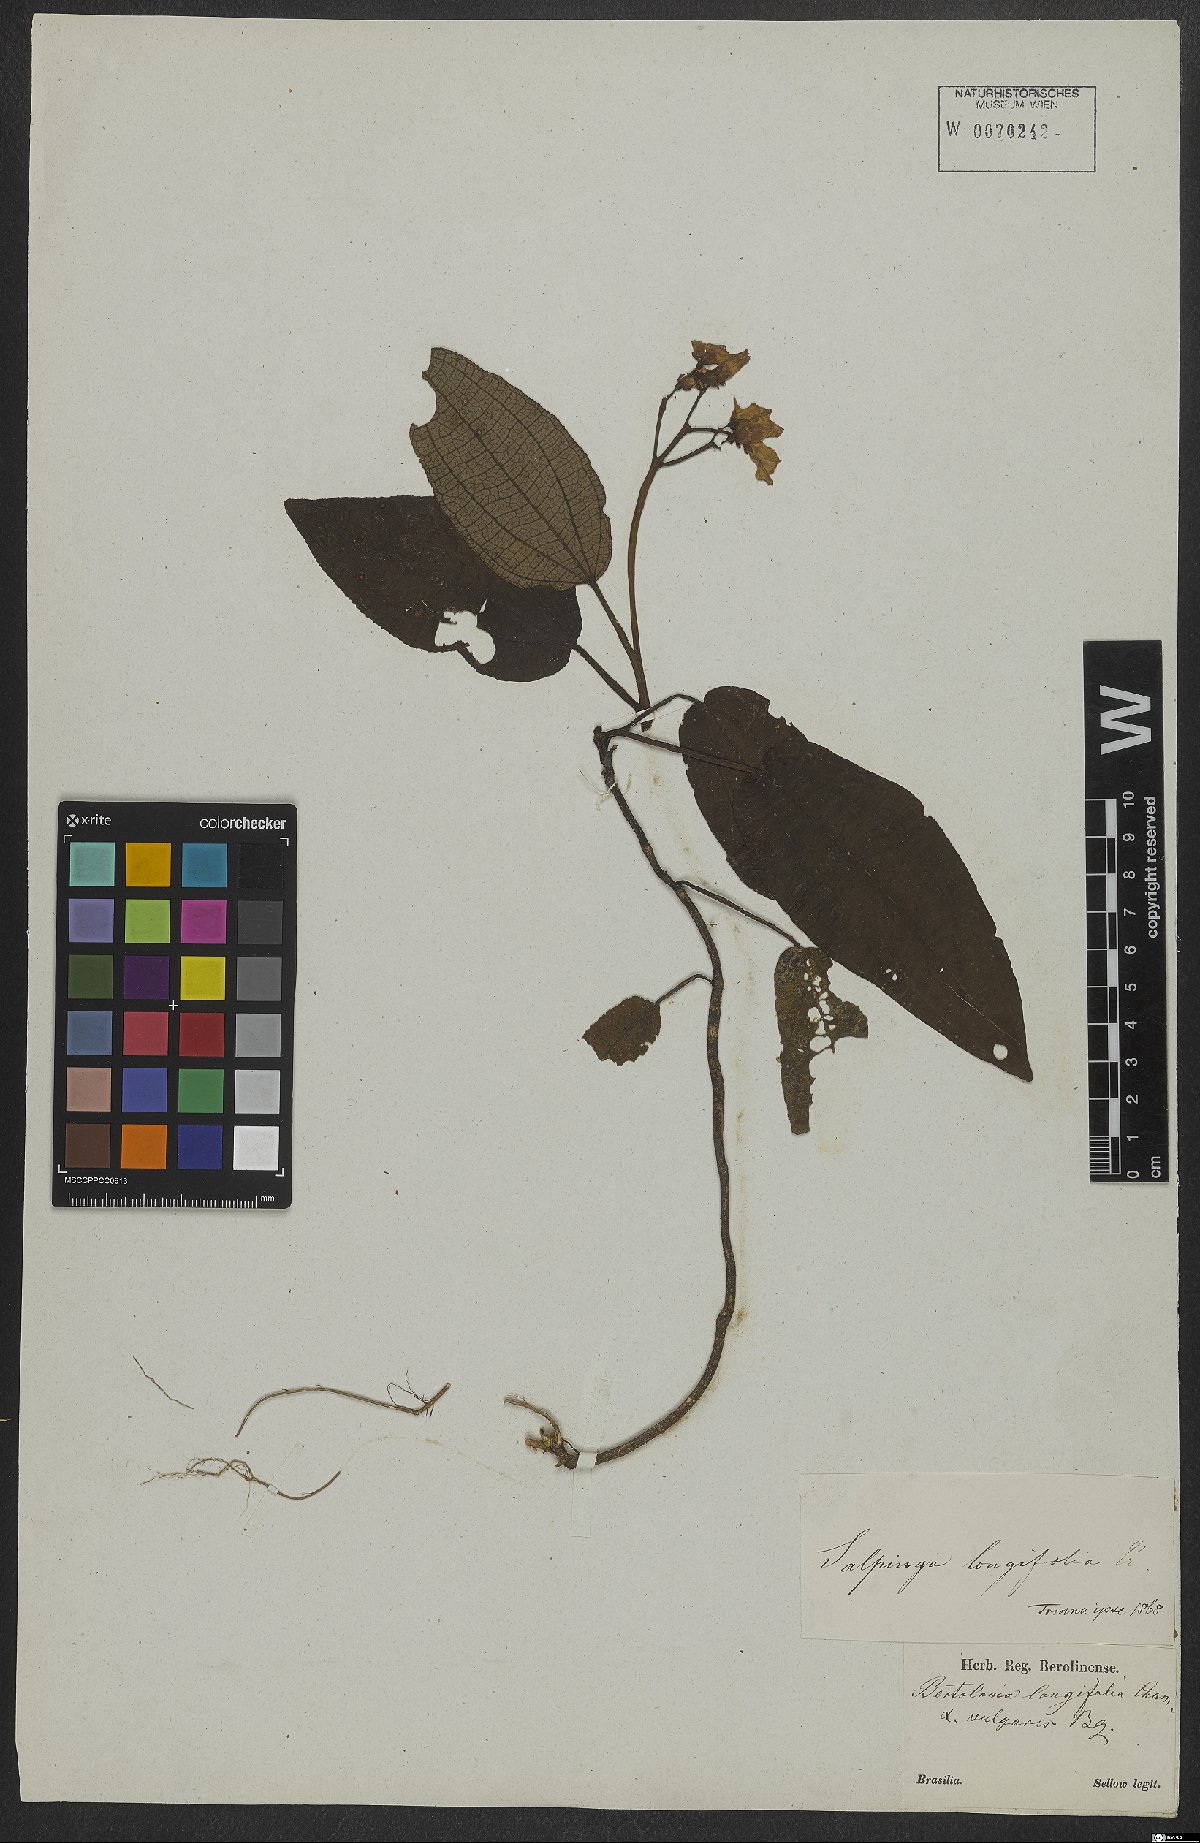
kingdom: Plantae
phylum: Tracheophyta
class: Magnoliopsida
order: Myrtales
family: Melastomataceae
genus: Salpinga
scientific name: Salpinga longifolia
